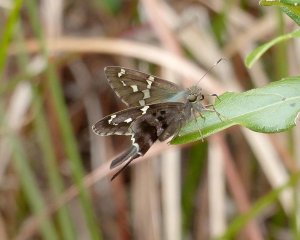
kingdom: Animalia
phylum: Arthropoda
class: Insecta
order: Lepidoptera
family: Hesperiidae
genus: Urbanus
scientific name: Urbanus proteus
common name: Long-tailed Skipper
